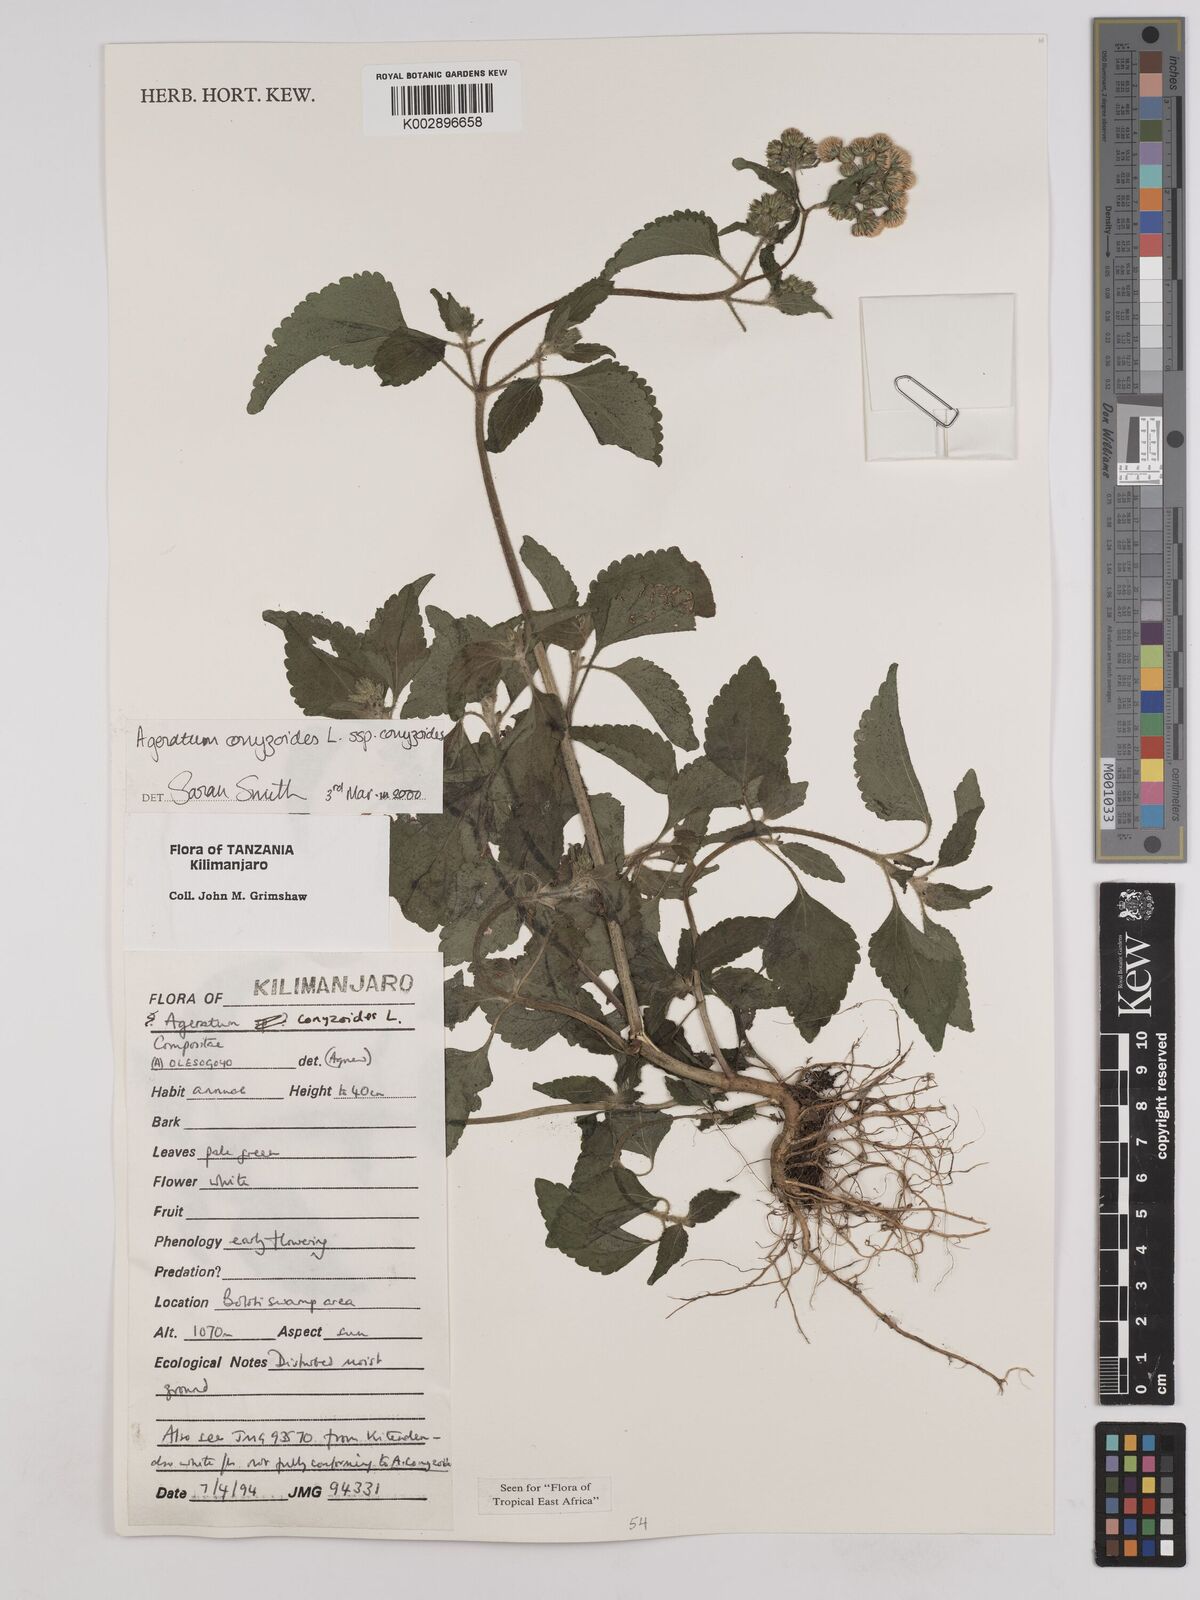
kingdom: Plantae
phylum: Tracheophyta
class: Magnoliopsida
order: Asterales
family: Asteraceae
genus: Ageratum
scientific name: Ageratum conyzoides
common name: Tropical whiteweed
